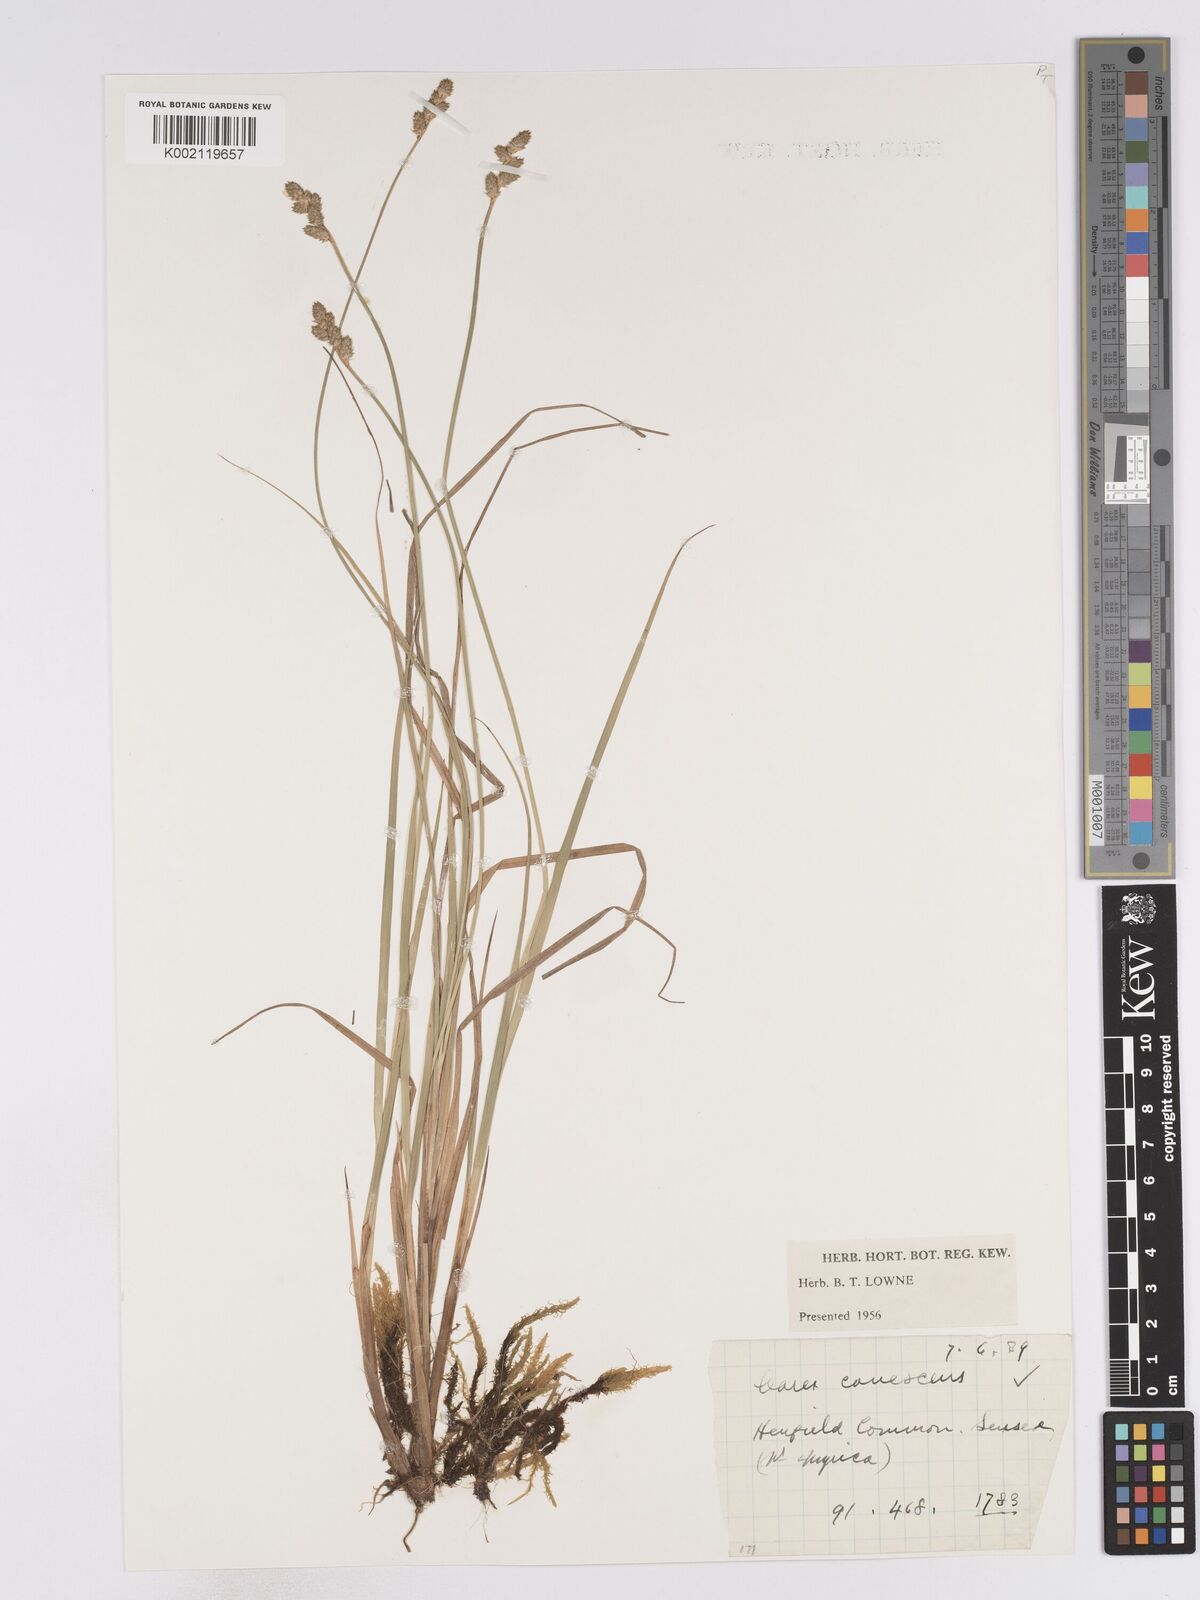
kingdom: Plantae
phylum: Tracheophyta
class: Liliopsida
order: Poales
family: Cyperaceae
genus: Carex
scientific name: Carex curta
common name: White sedge
